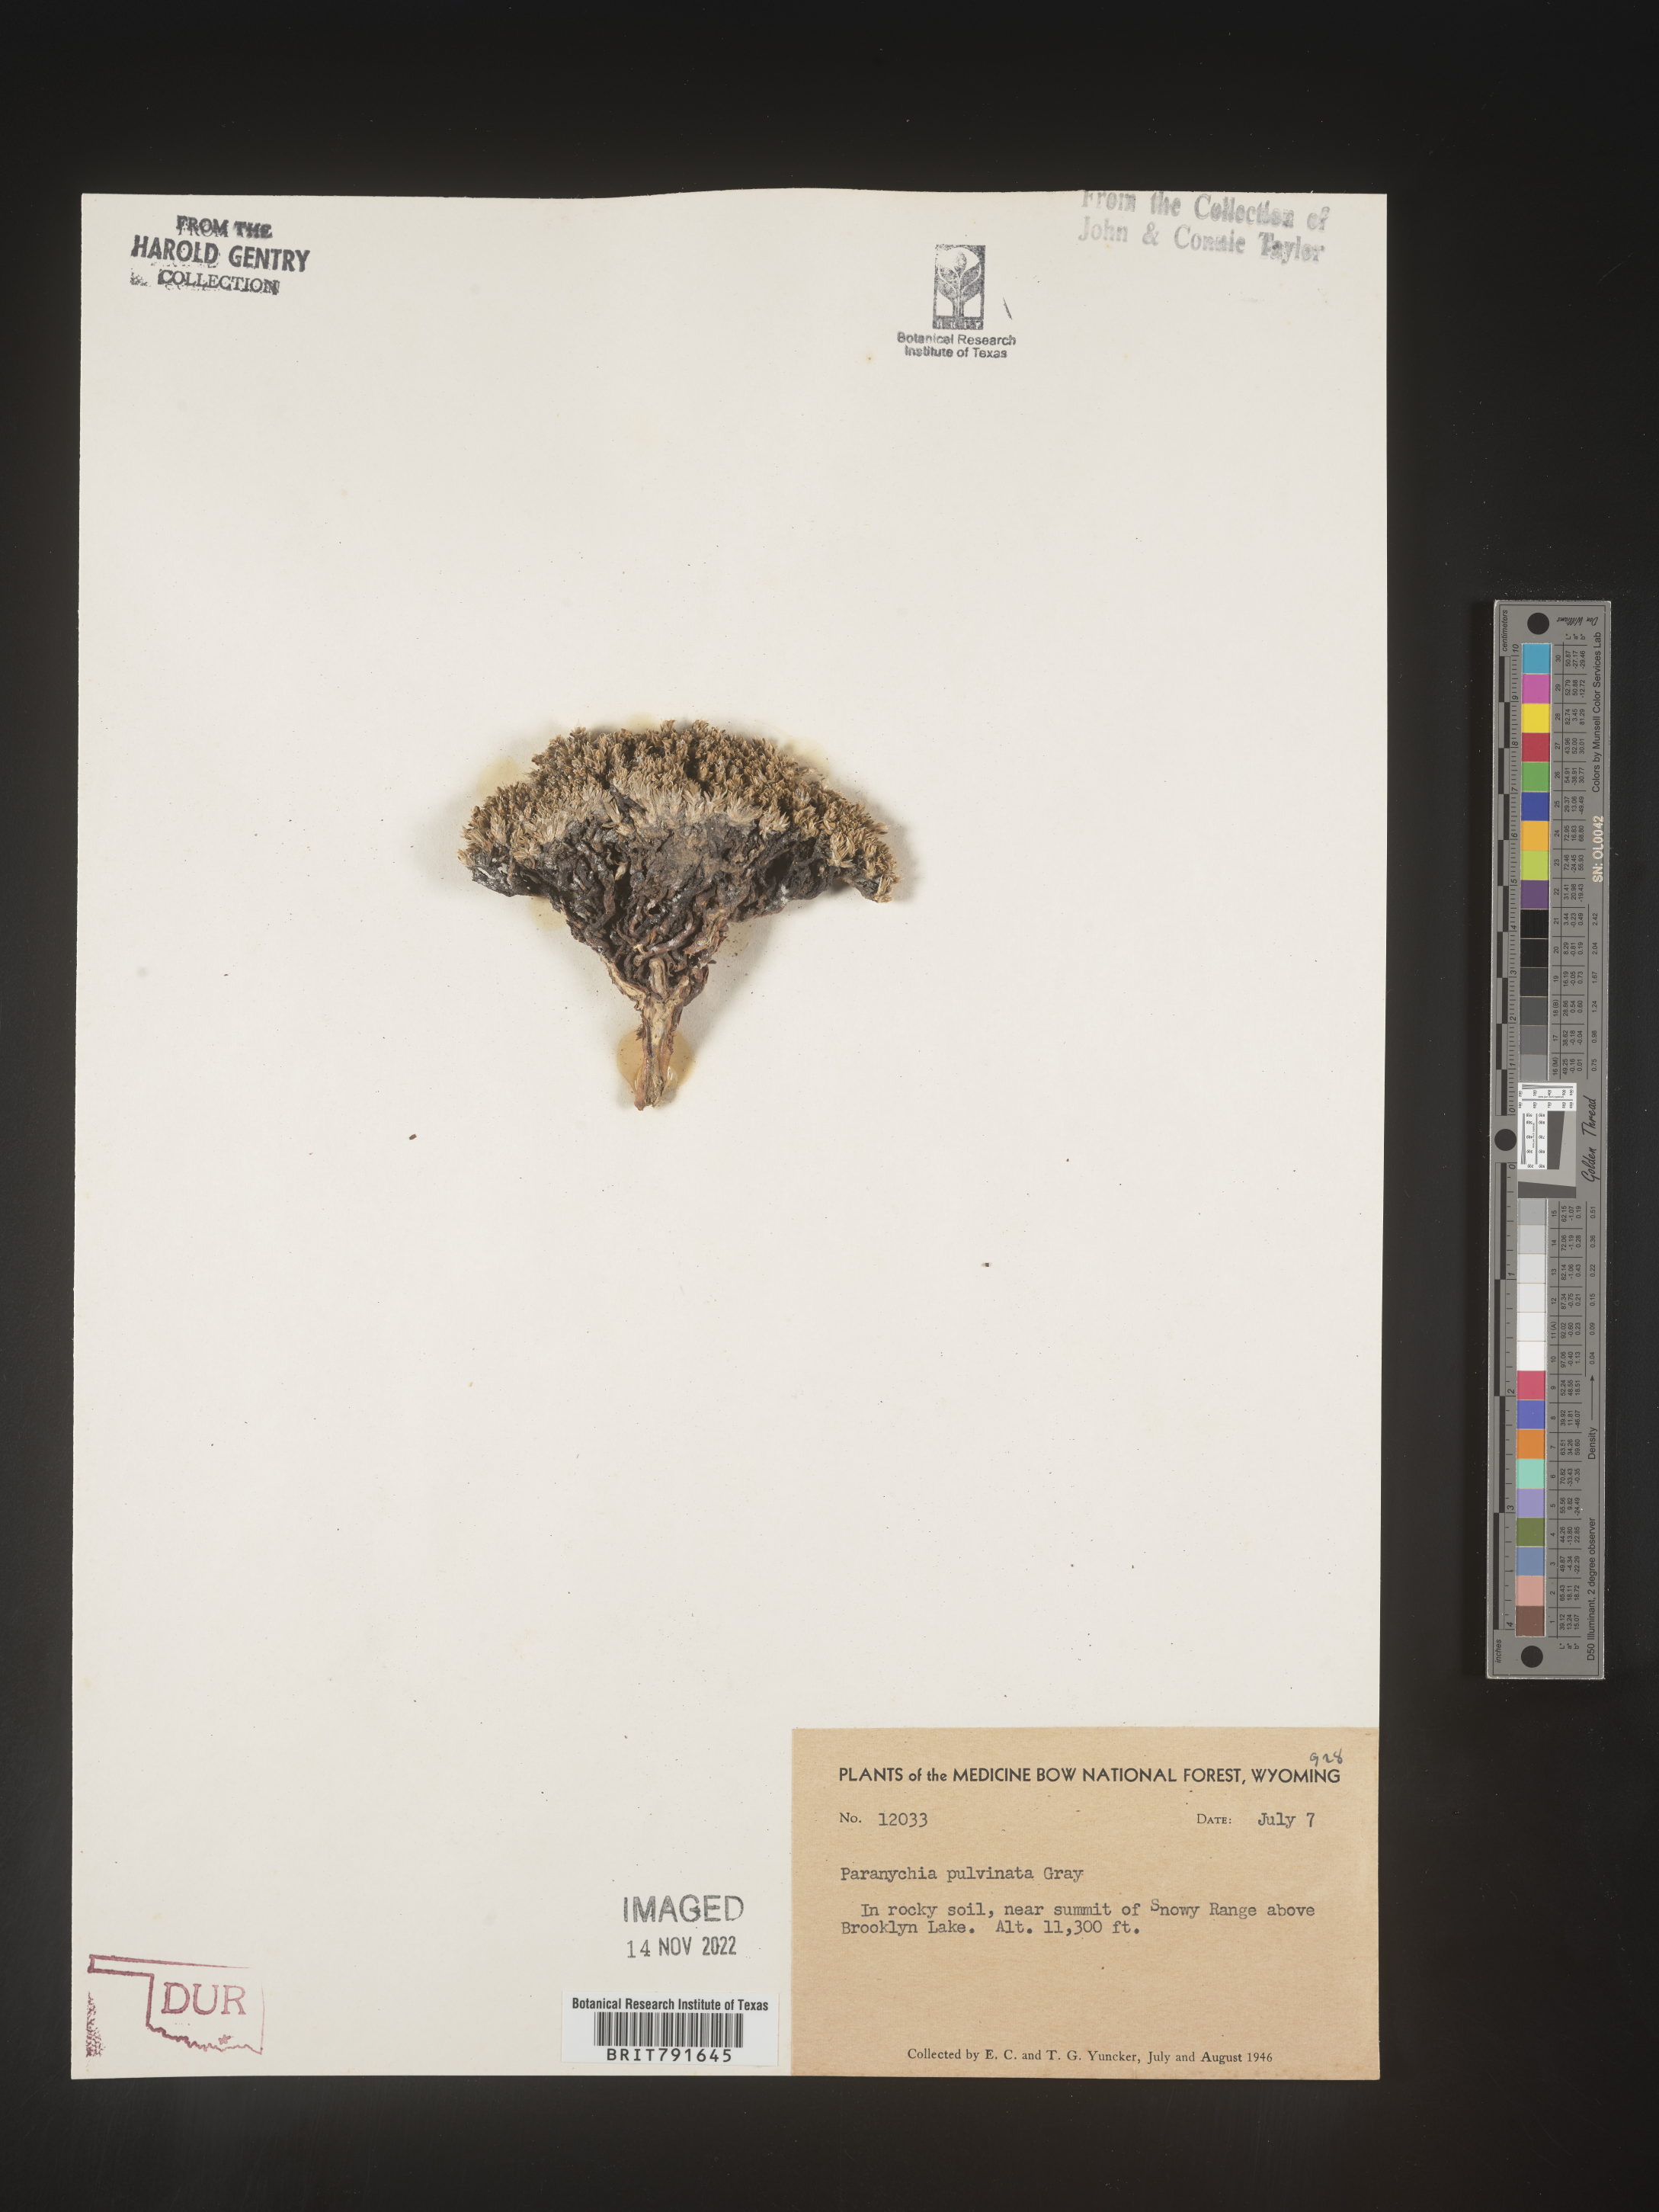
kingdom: Plantae
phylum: Tracheophyta
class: Magnoliopsida
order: Caryophyllales
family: Caryophyllaceae
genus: Paronychia
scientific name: Paronychia pulvinata
